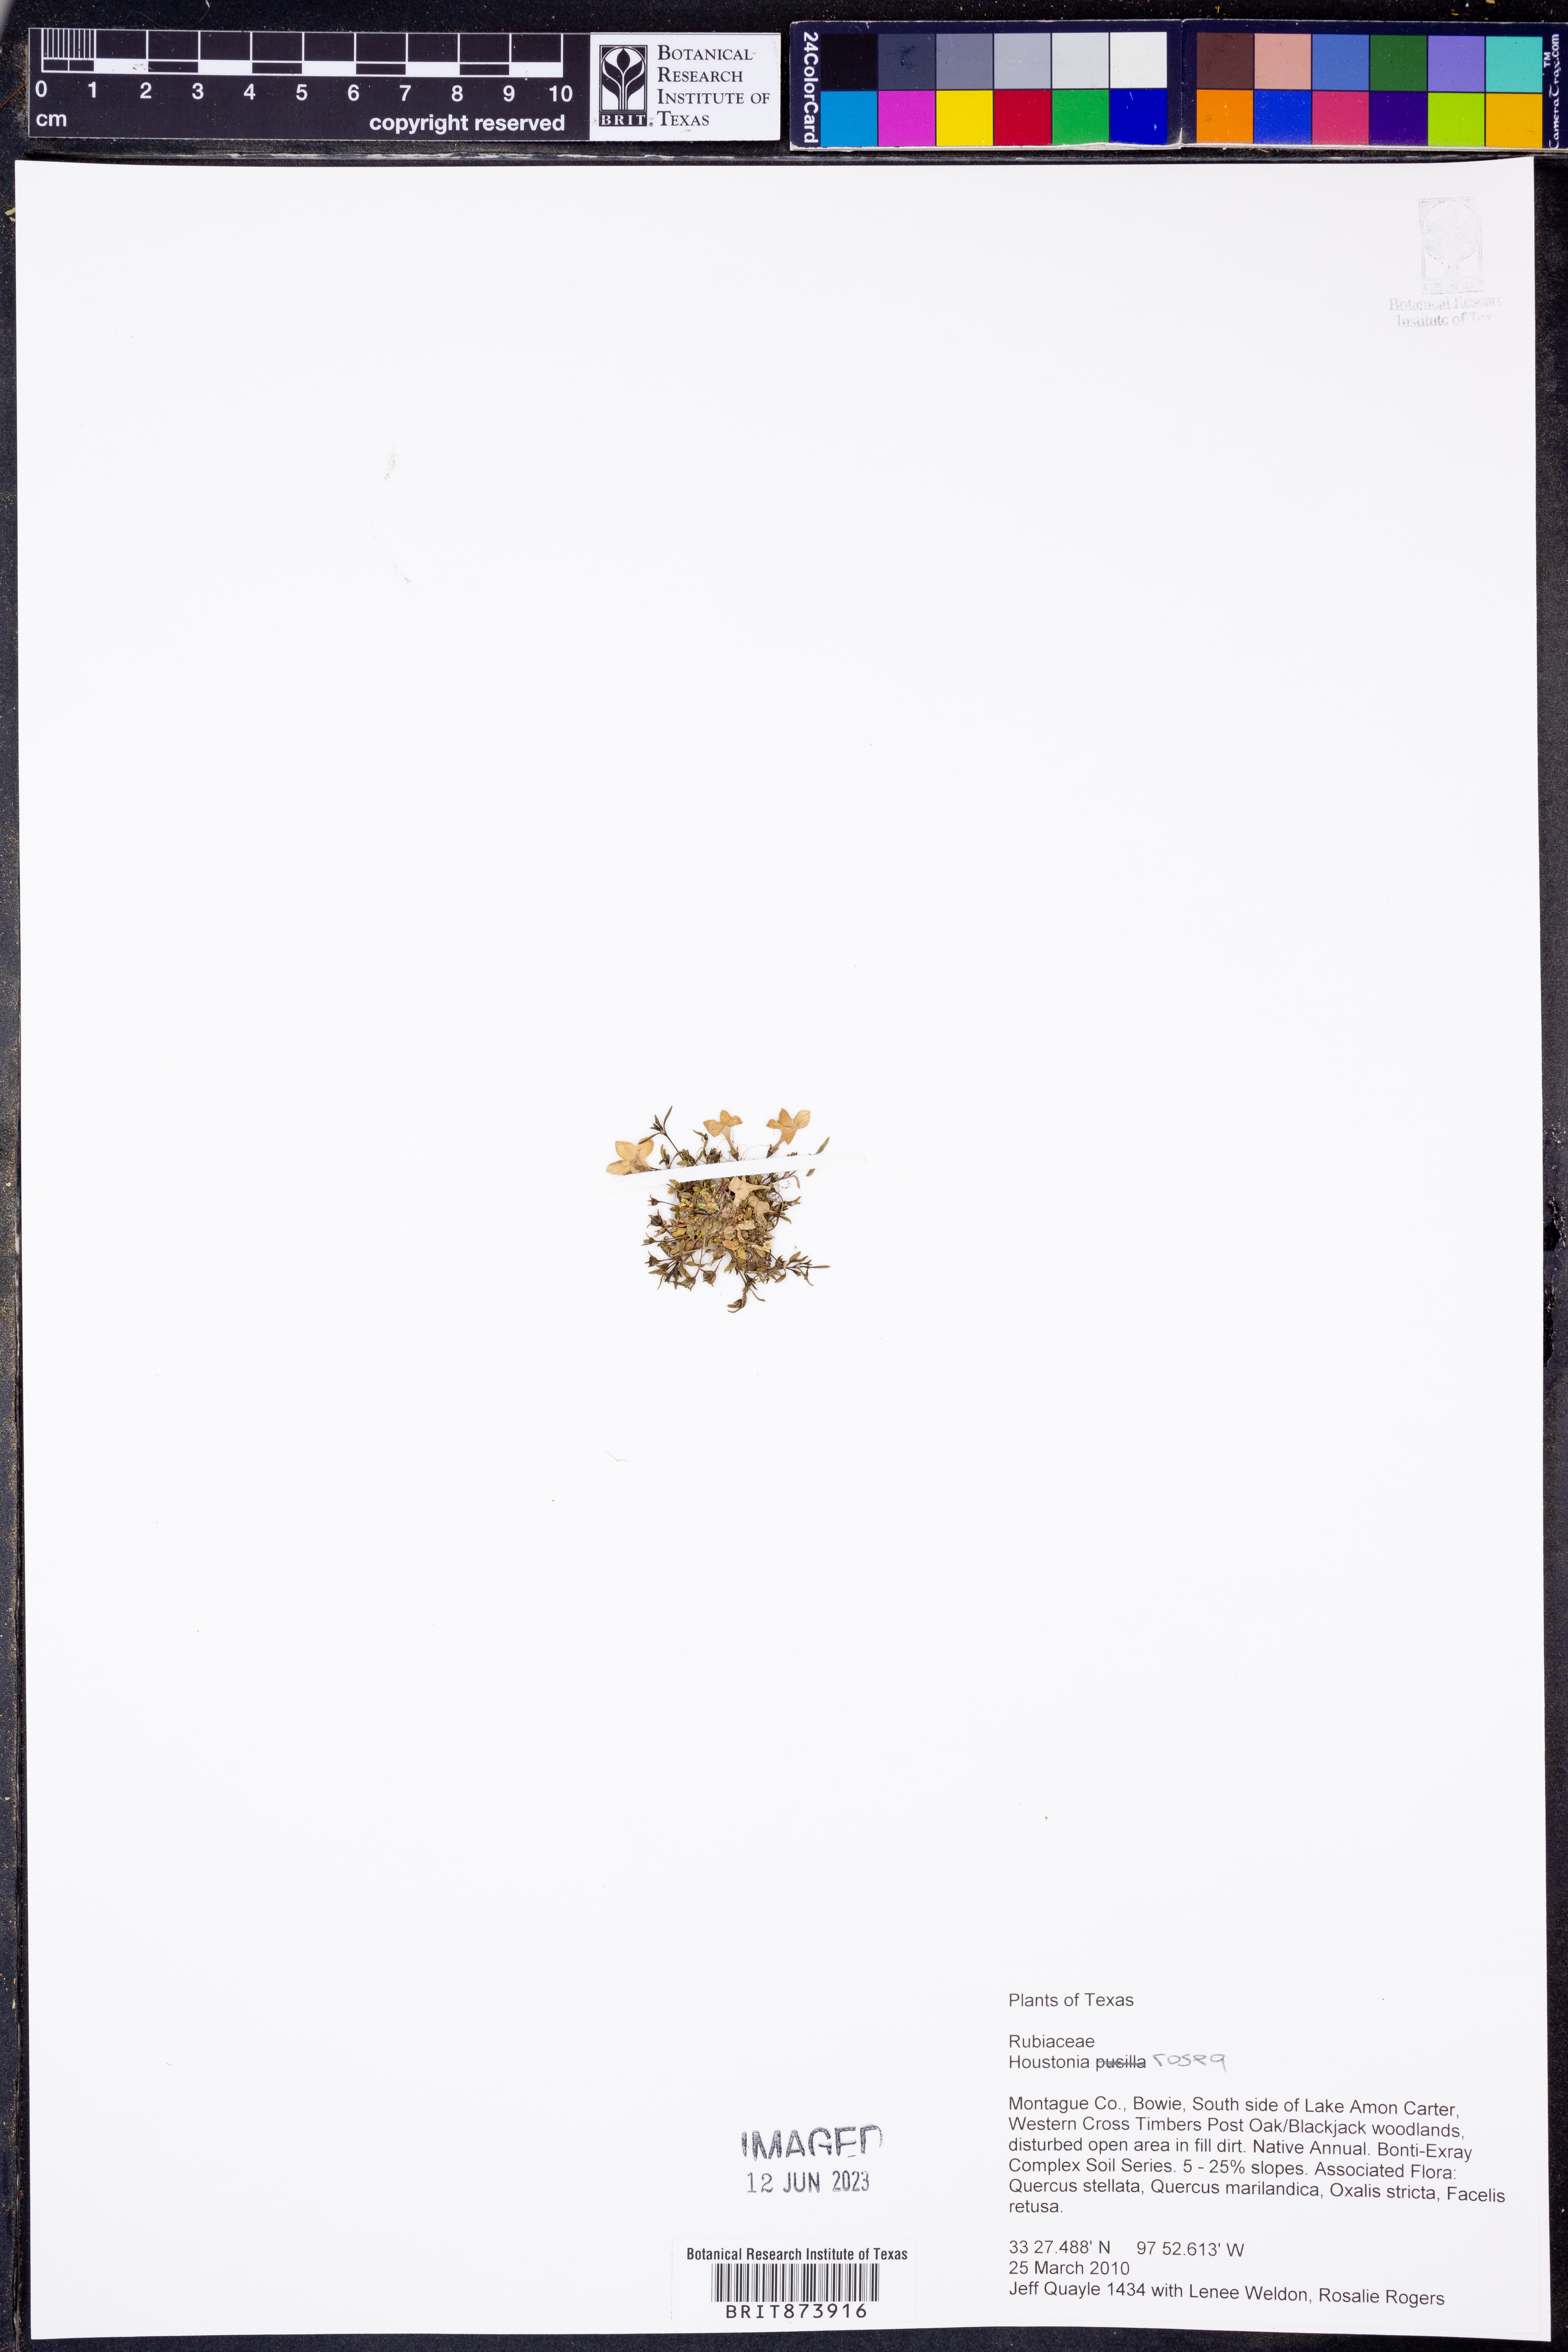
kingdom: Plantae
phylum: Tracheophyta
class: Magnoliopsida
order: Gentianales
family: Rubiaceae
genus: Houstonia
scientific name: Houstonia rosea
